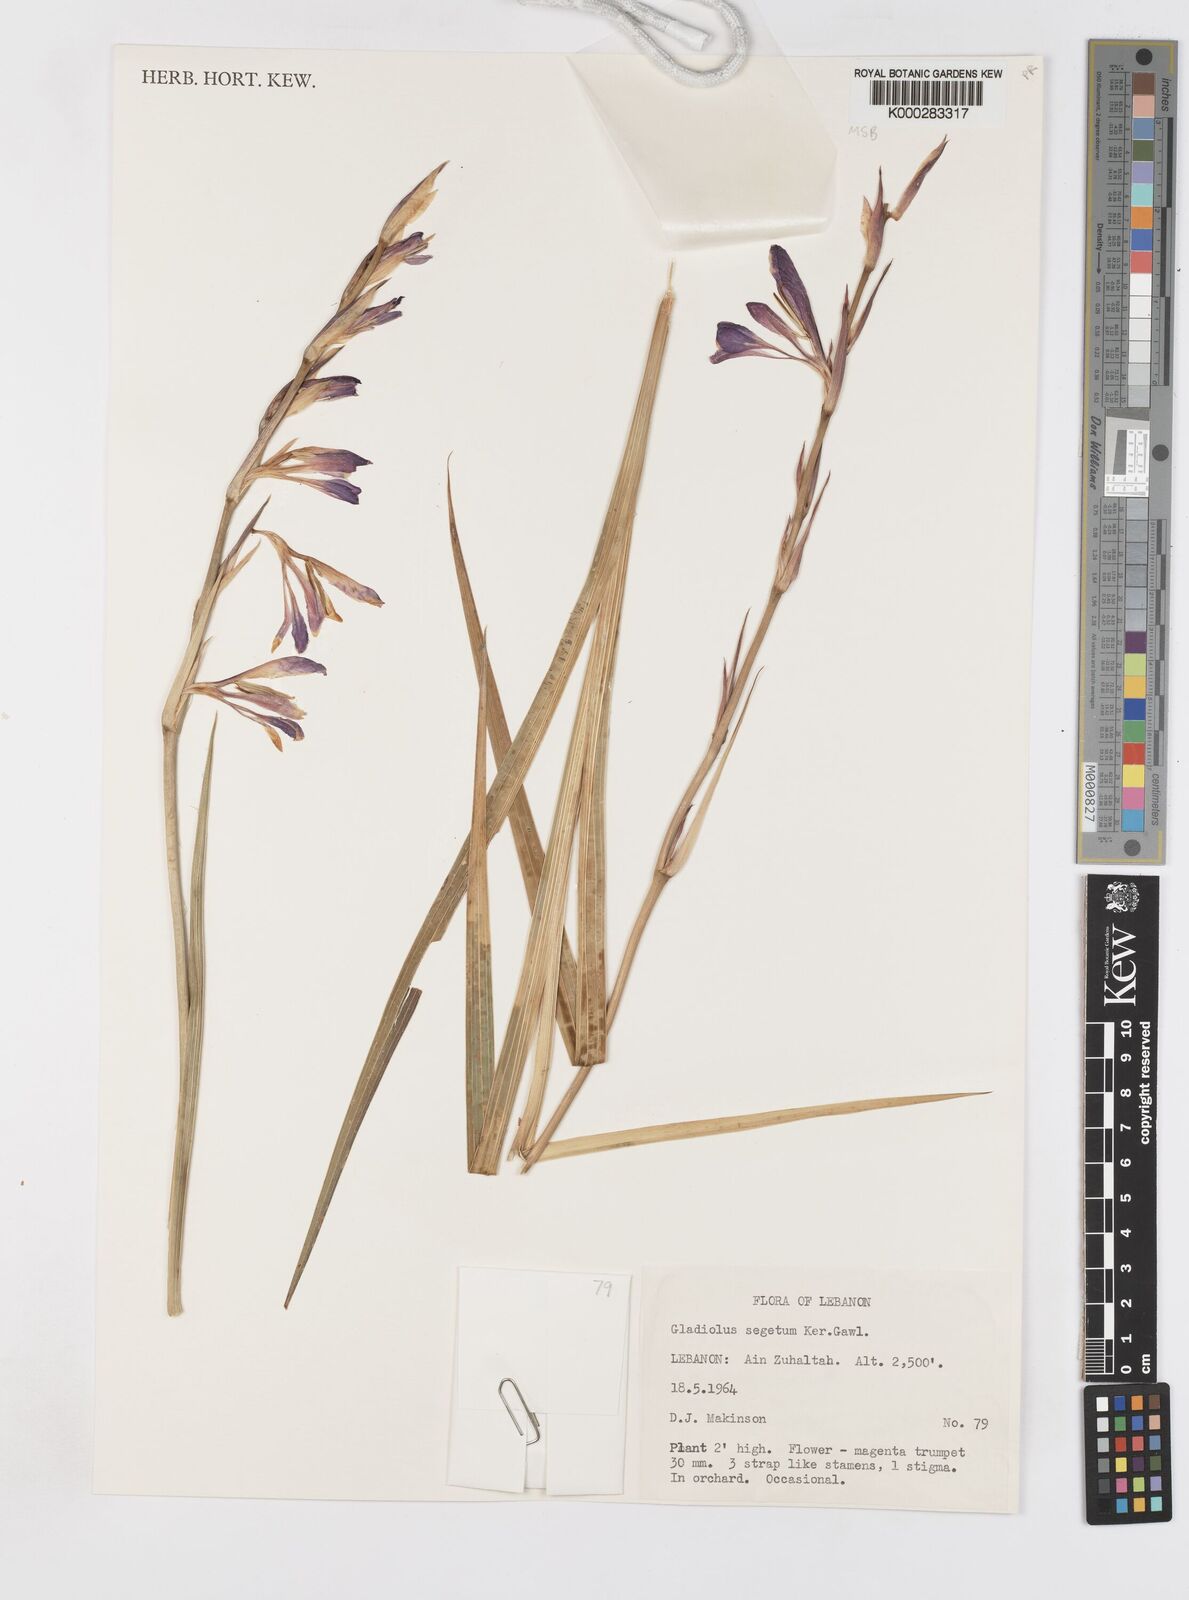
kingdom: Plantae
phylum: Tracheophyta
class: Liliopsida
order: Asparagales
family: Iridaceae
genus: Gladiolus
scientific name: Gladiolus italicus
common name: Field gladiolus
